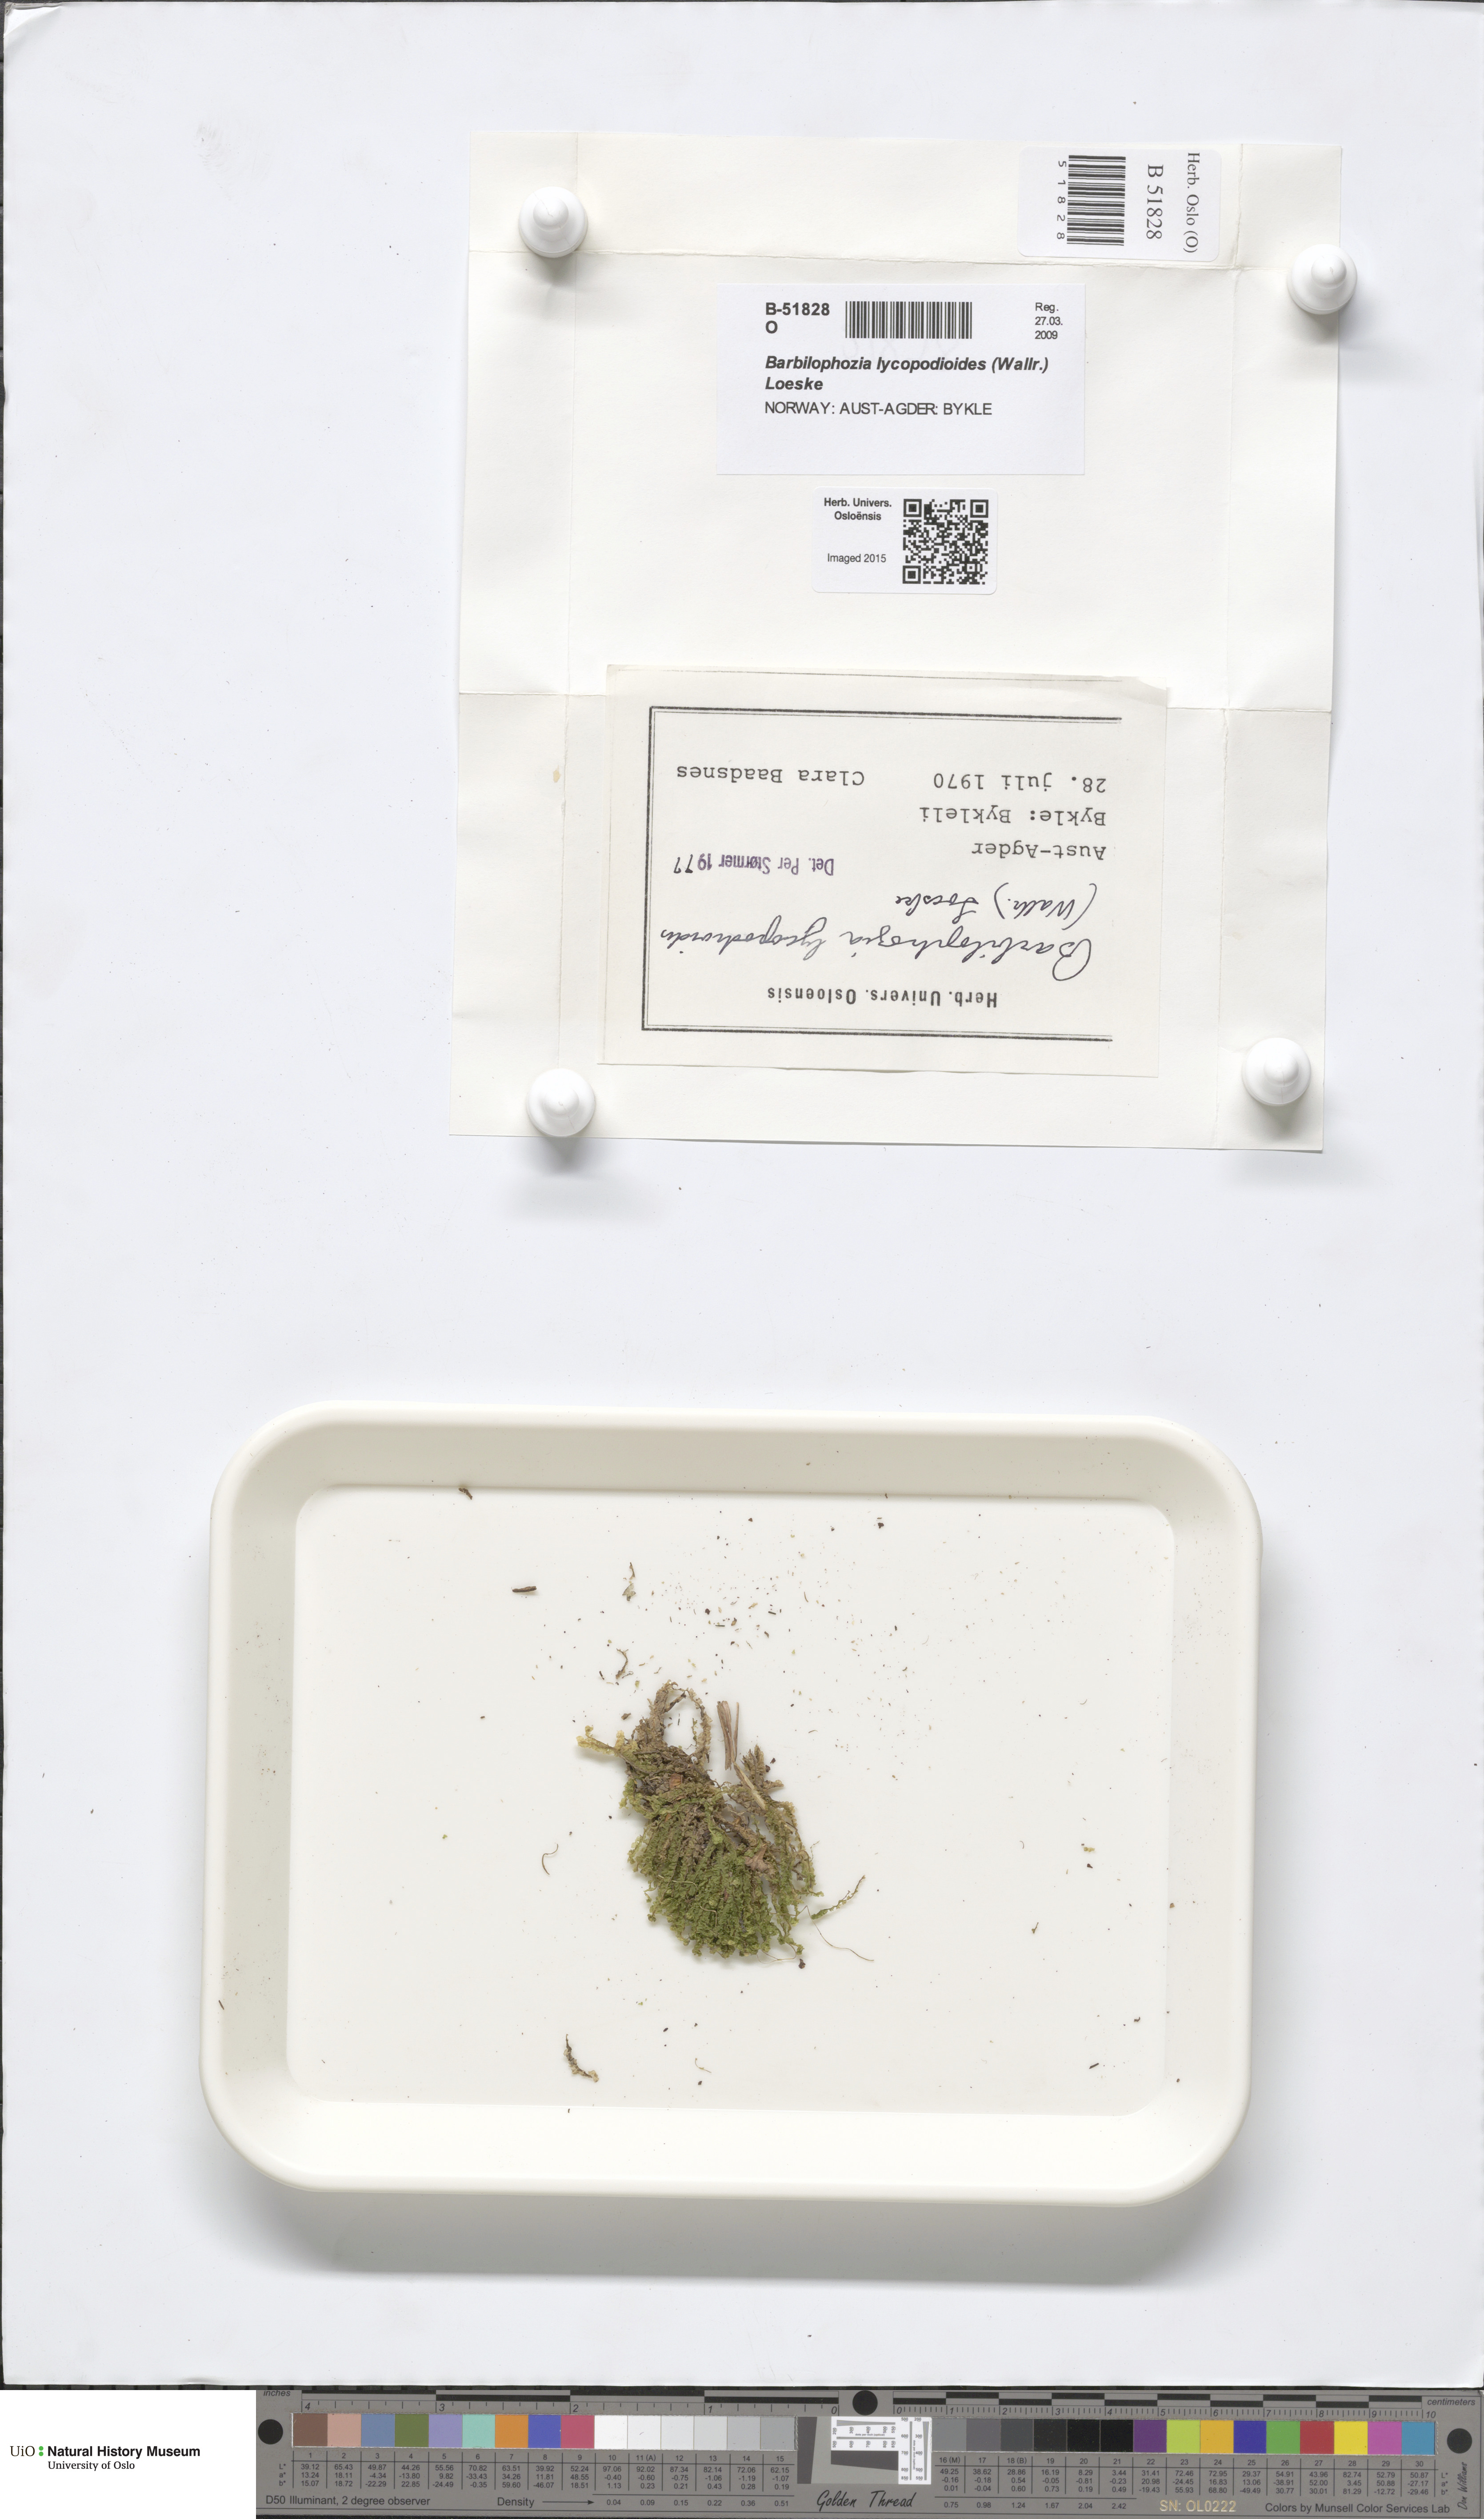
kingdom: Plantae
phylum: Marchantiophyta
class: Jungermanniopsida
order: Jungermanniales
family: Anastrophyllaceae
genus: Barbilophozia
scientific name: Barbilophozia lycopodioides
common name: Greater pawwort
